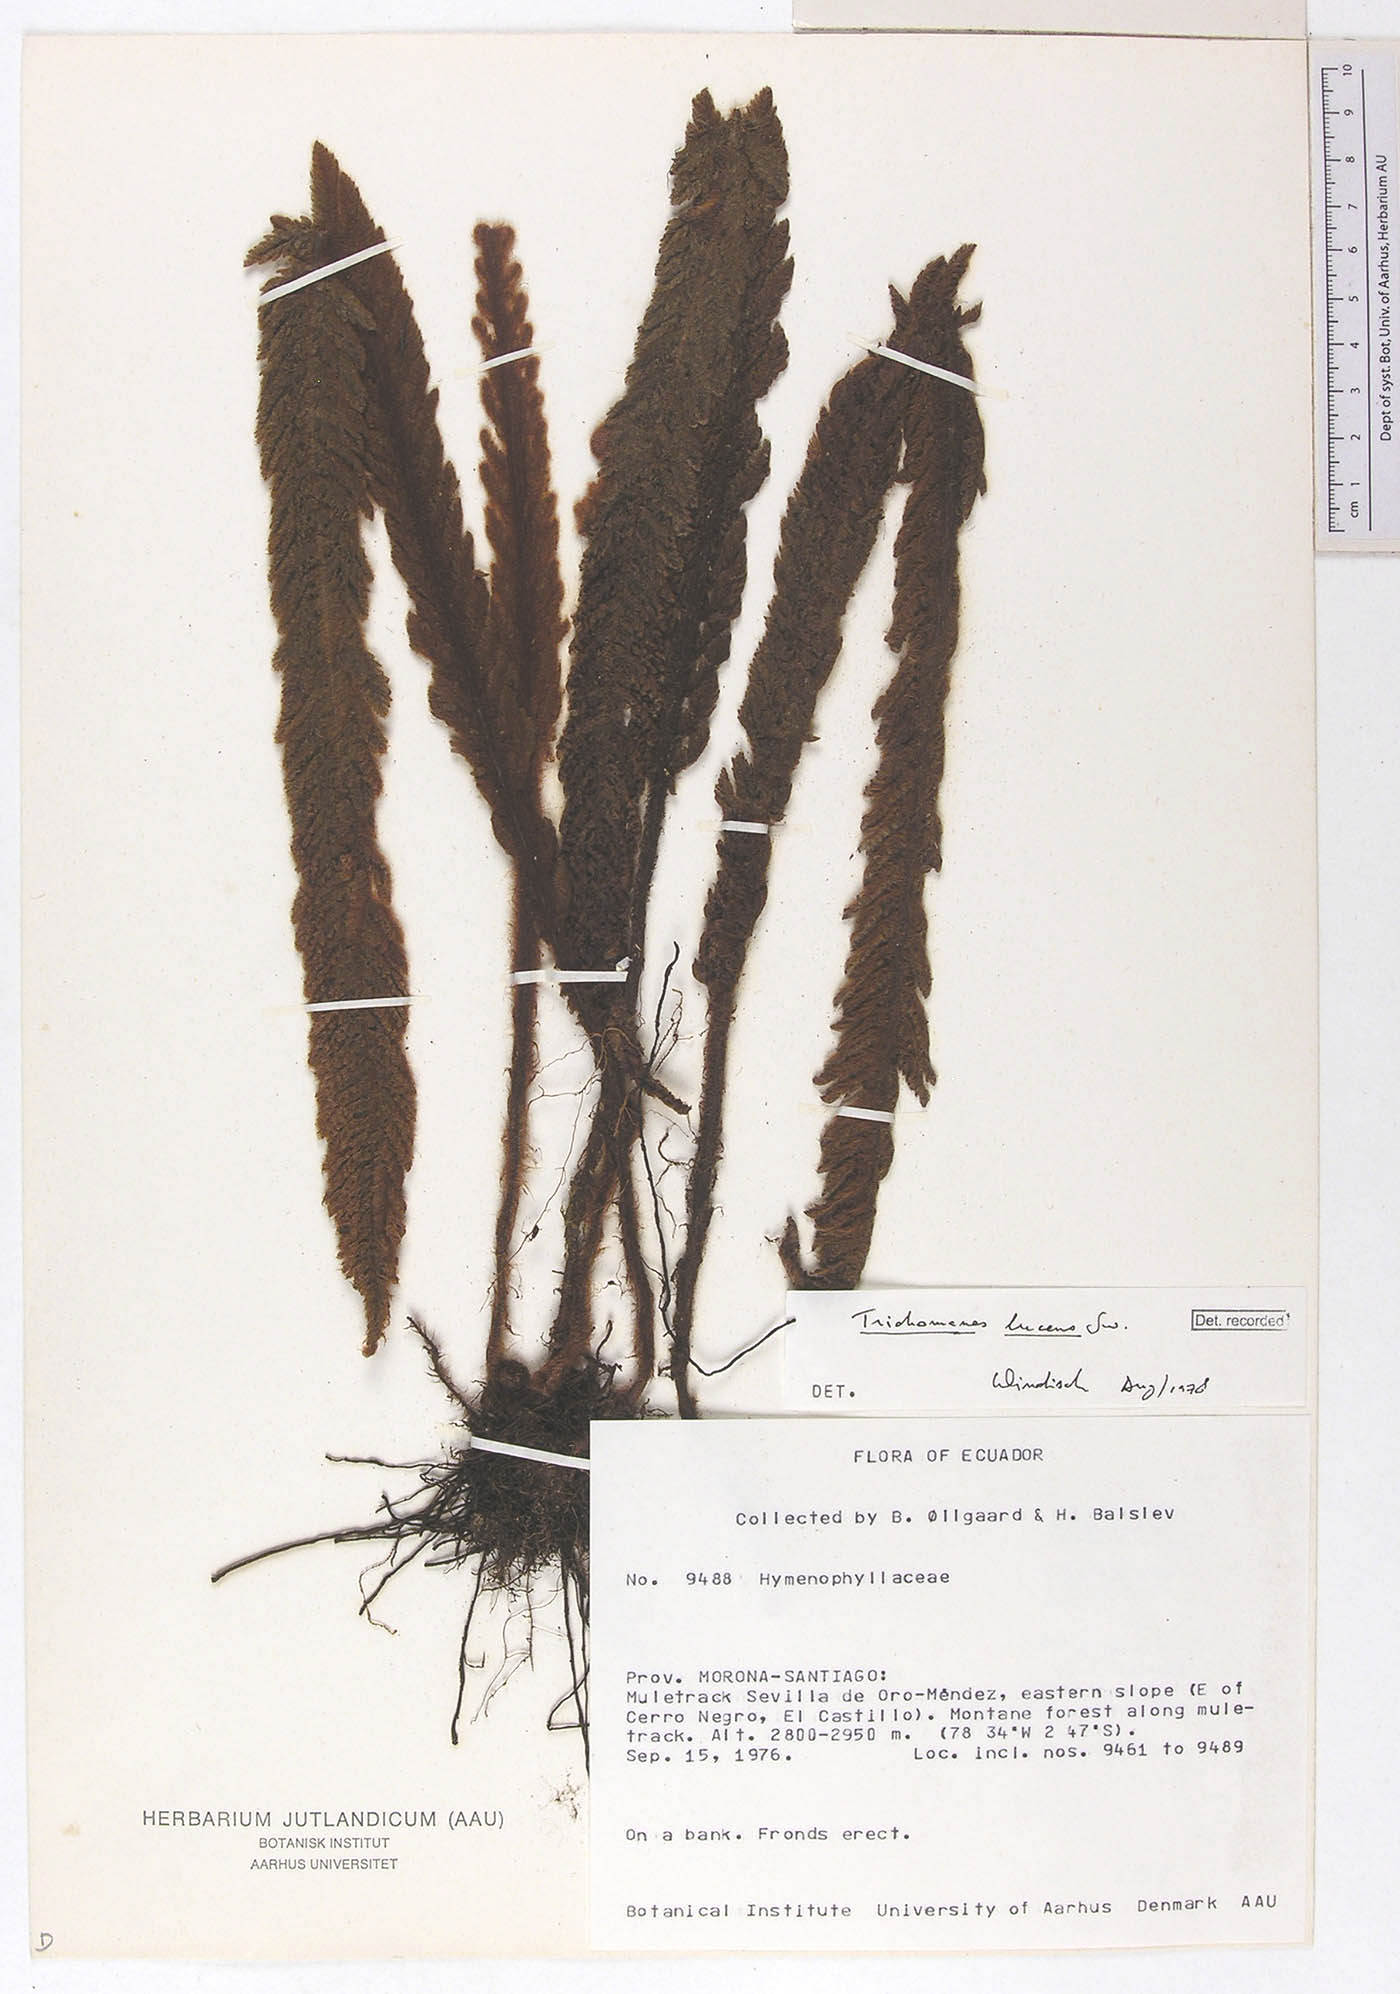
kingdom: Plantae
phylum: Tracheophyta
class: Polypodiopsida
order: Hymenophyllales
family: Hymenophyllaceae
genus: Trichomanes
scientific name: Trichomanes lucens
